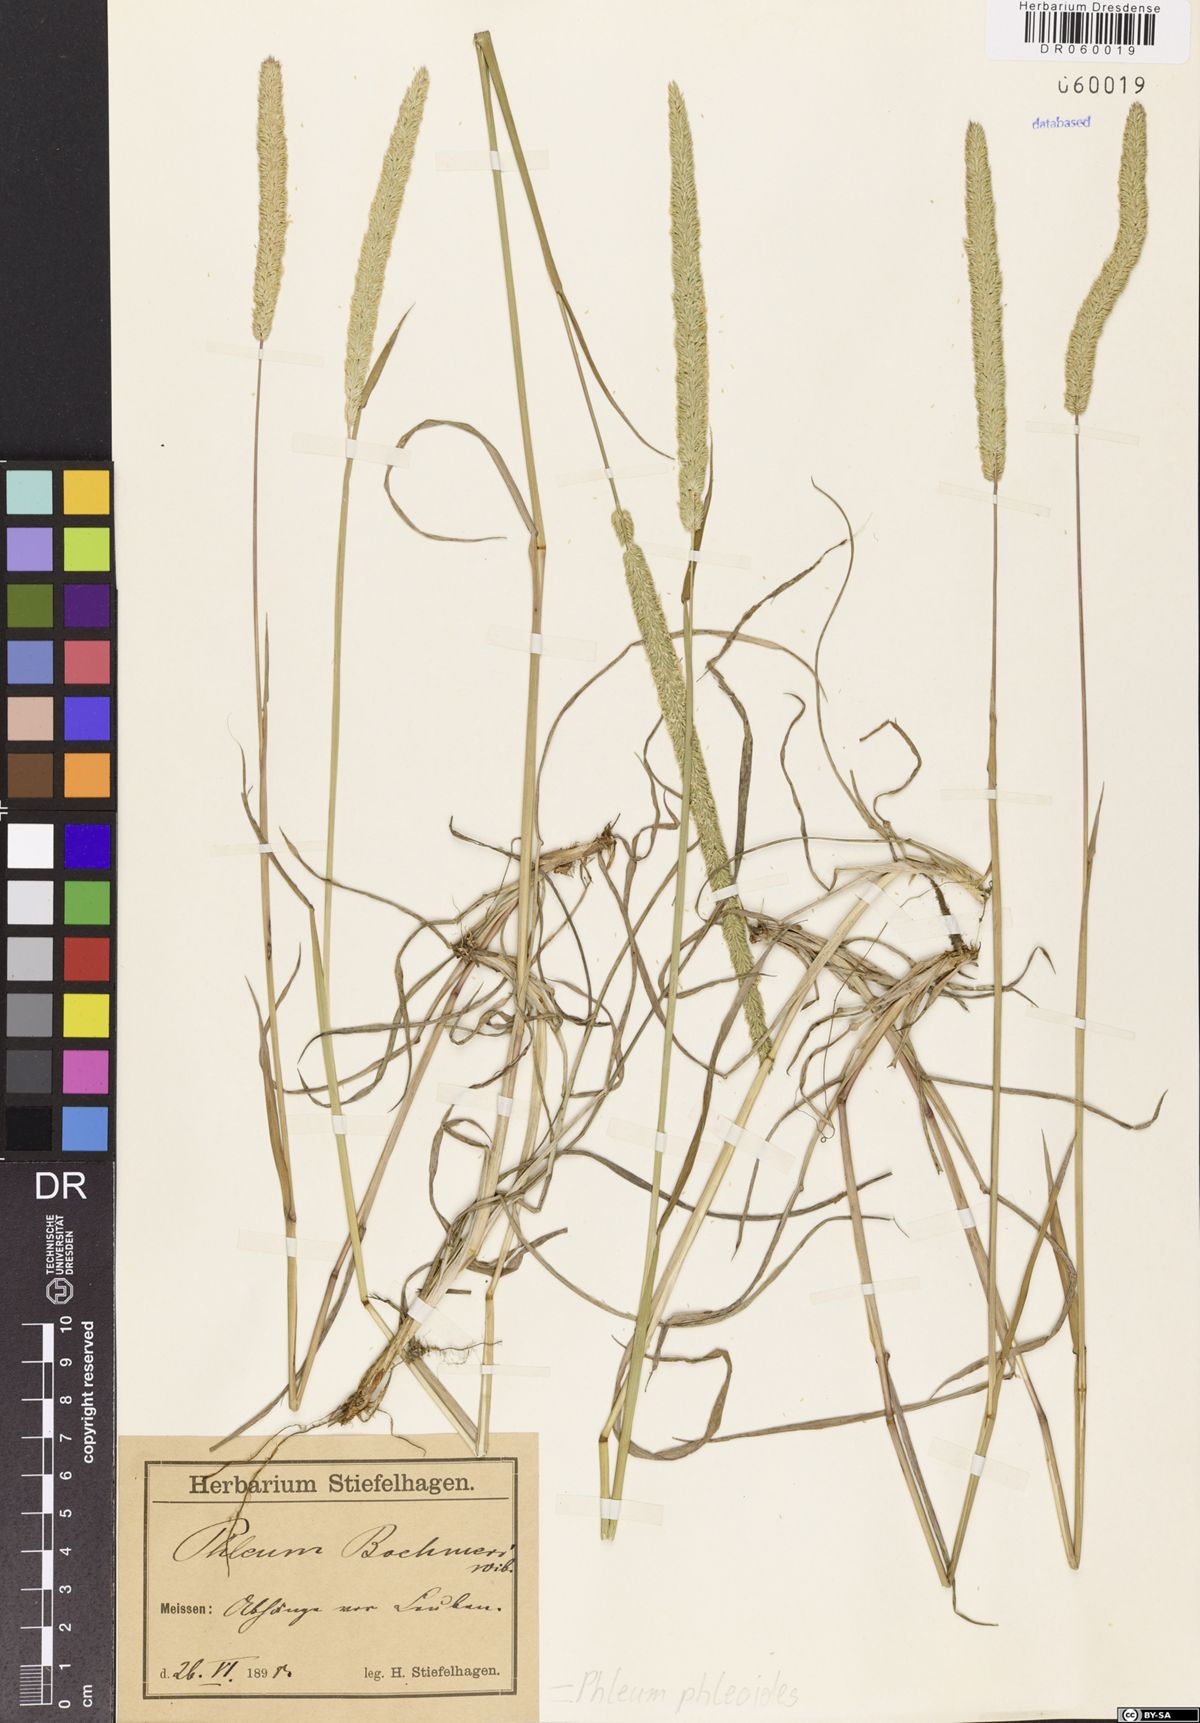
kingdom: Plantae
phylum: Tracheophyta
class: Liliopsida
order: Poales
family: Poaceae
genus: Phleum
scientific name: Phleum phleoides
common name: Purple-stem cat's-tail
